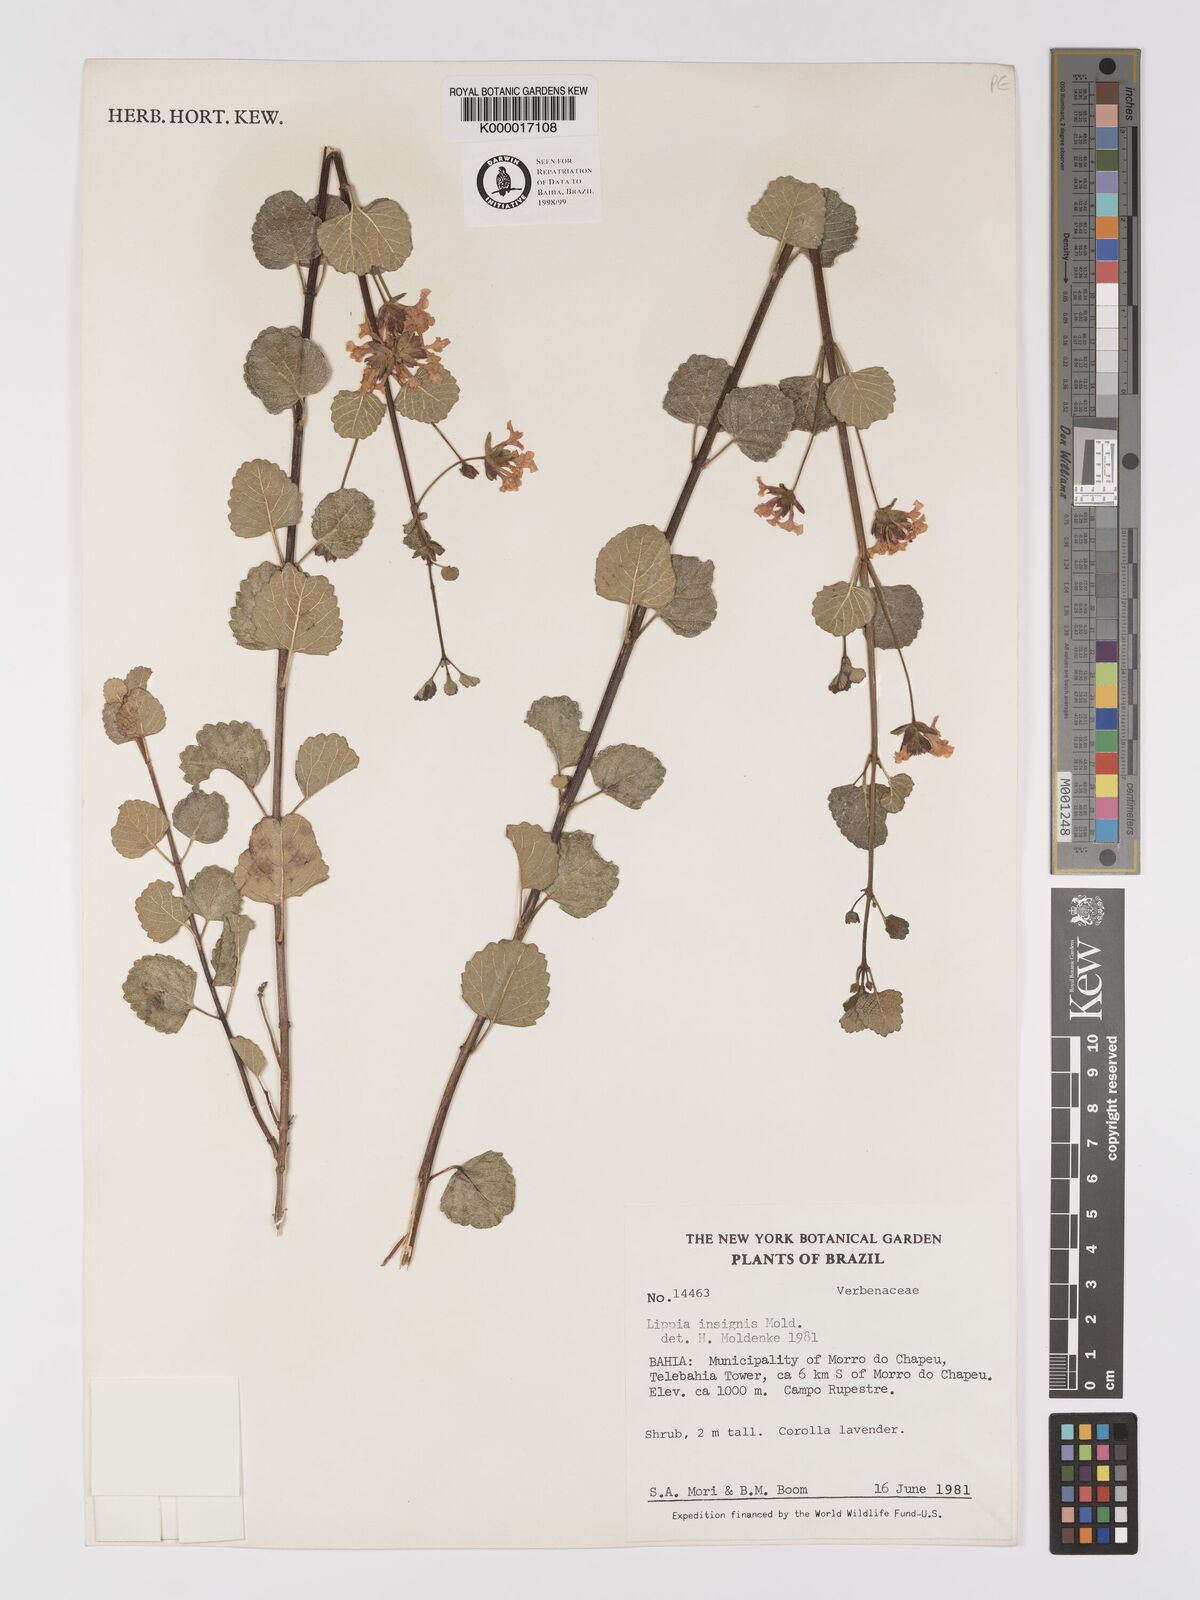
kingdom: Plantae
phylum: Tracheophyta
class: Magnoliopsida
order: Lamiales
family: Verbenaceae
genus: Lippia
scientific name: Lippia insignis
